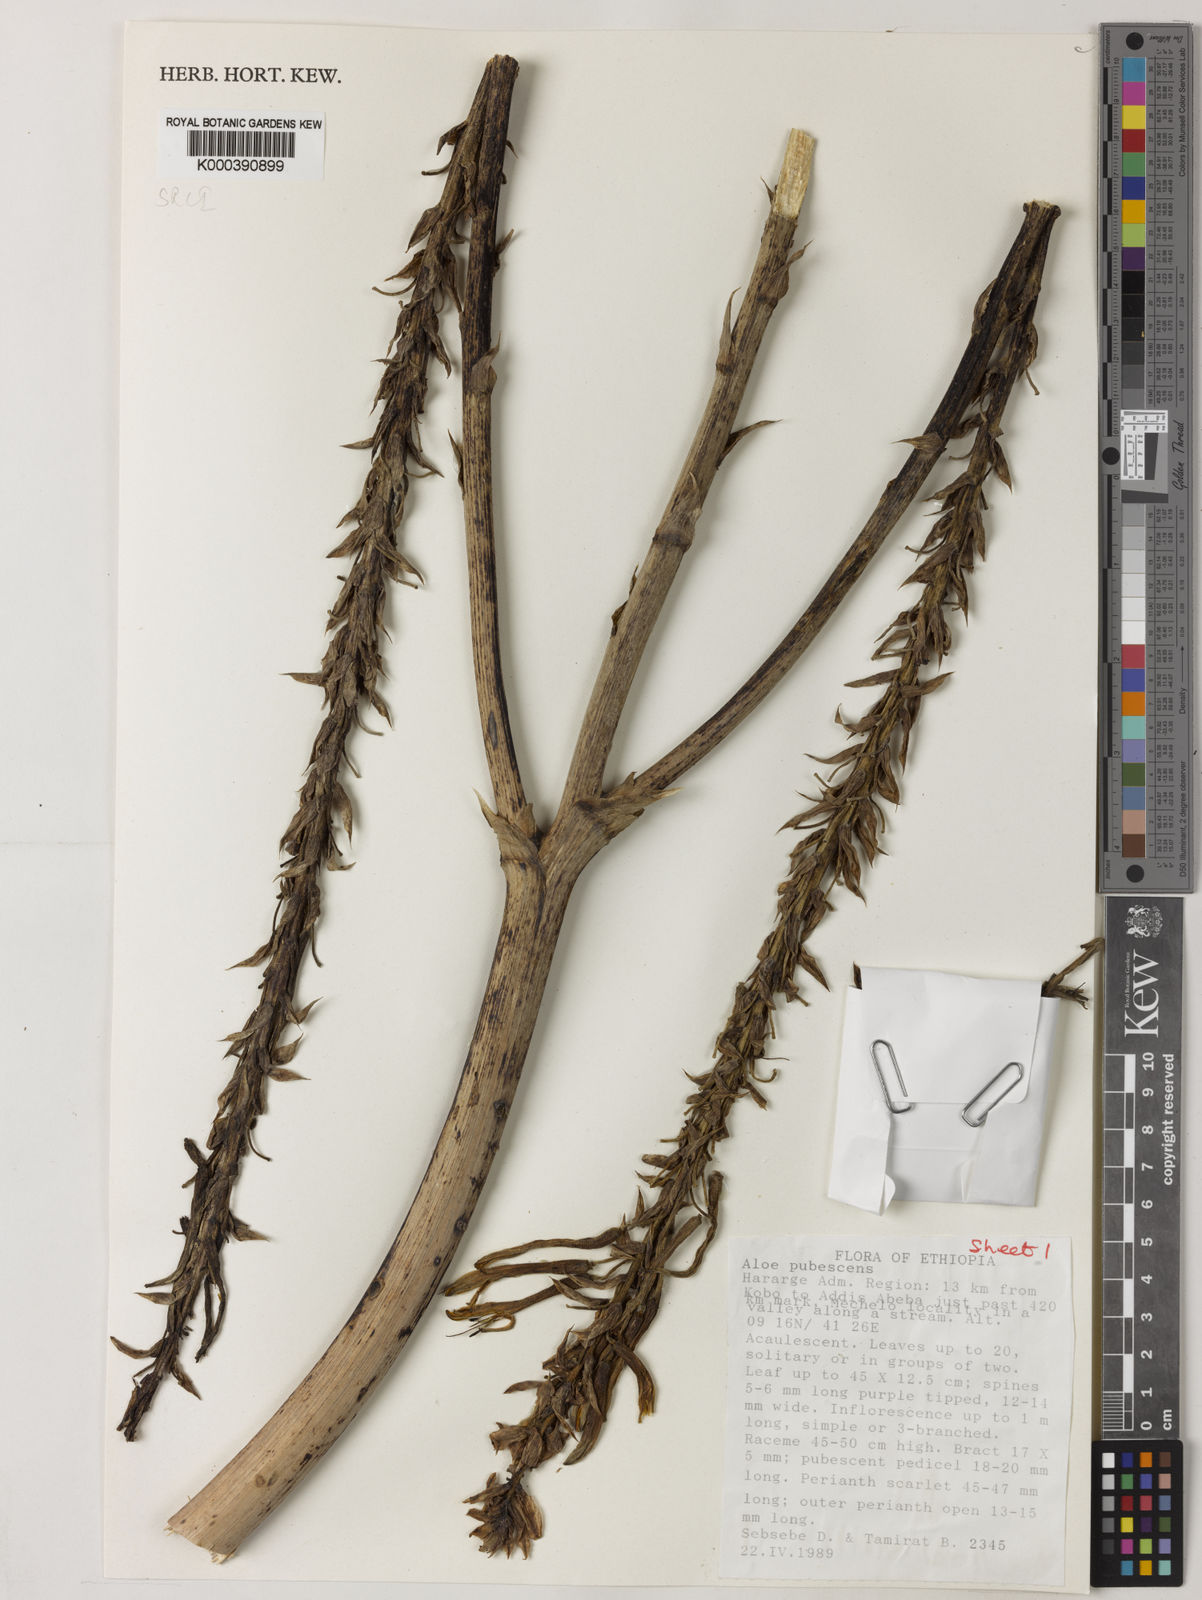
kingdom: Plantae
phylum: Tracheophyta
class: Liliopsida
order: Asparagales
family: Asphodelaceae
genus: Aloe
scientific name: Aloe pubescens
